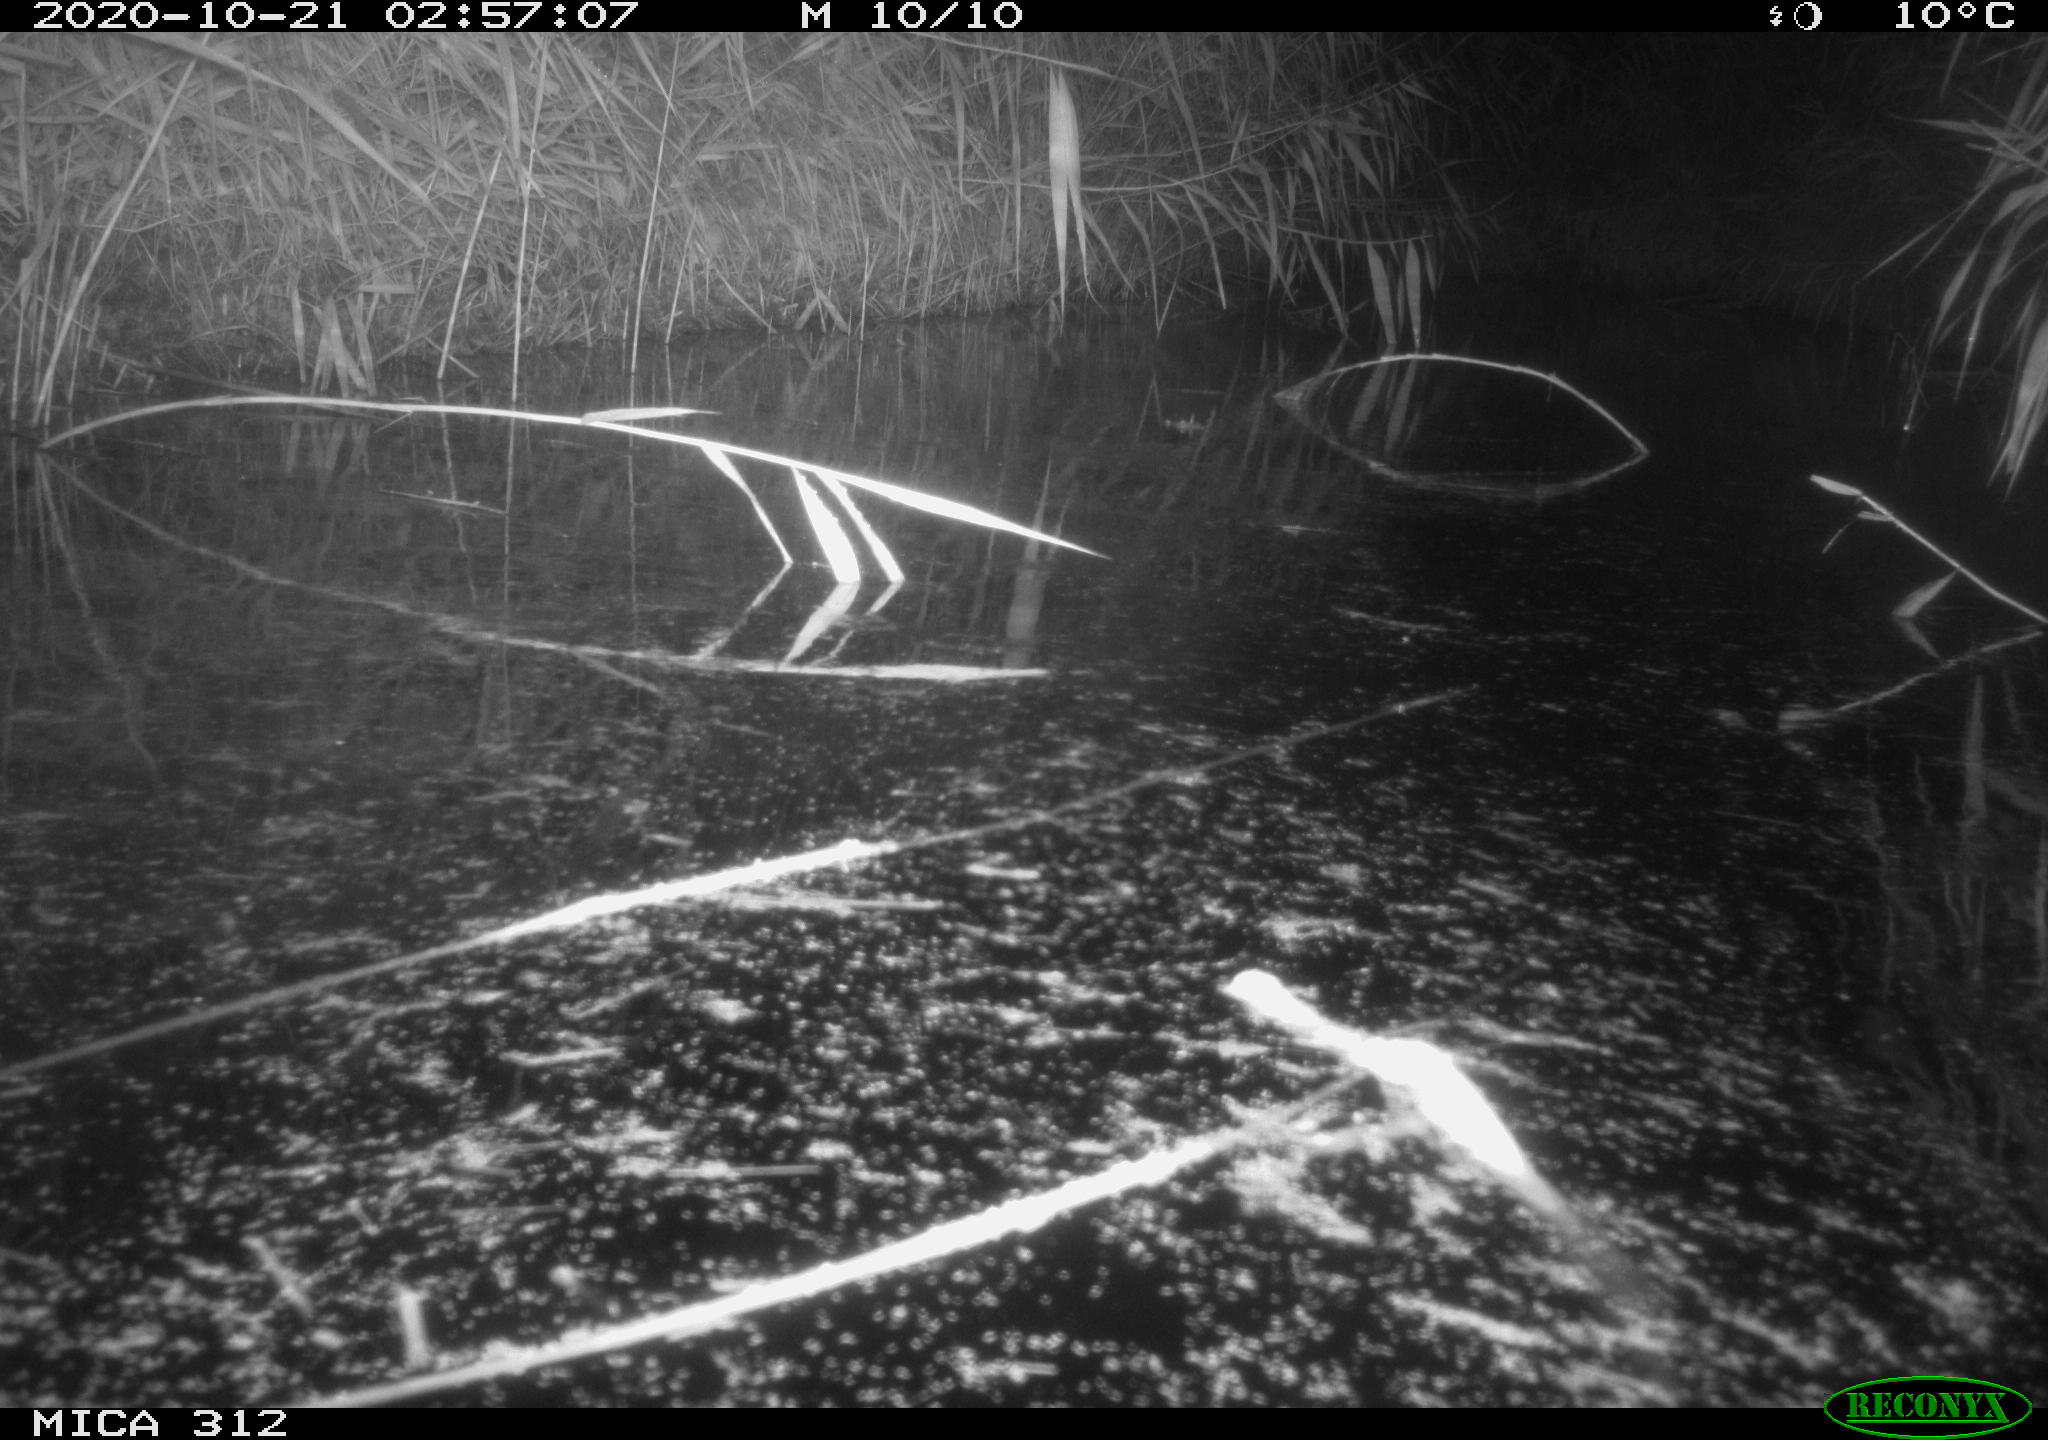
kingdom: Animalia
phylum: Chordata
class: Mammalia
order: Rodentia
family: Muridae
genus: Rattus
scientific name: Rattus norvegicus
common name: Brown rat
